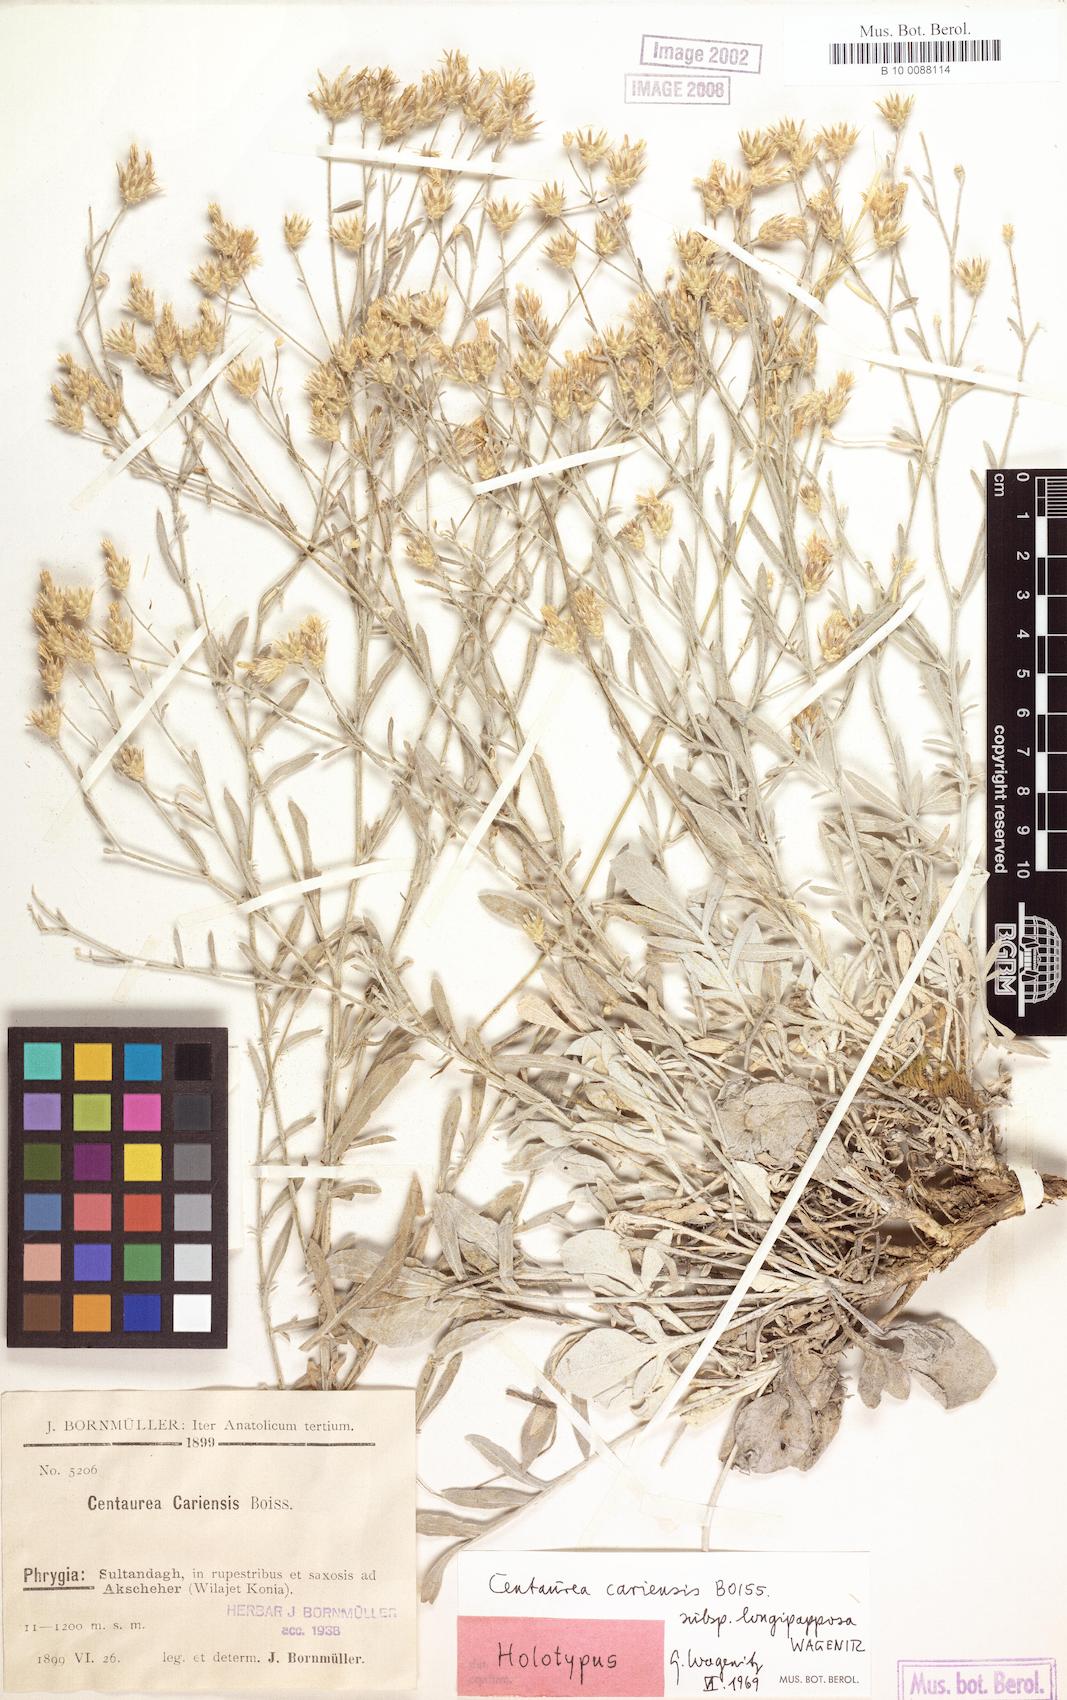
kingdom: Plantae
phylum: Tracheophyta
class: Magnoliopsida
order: Asterales
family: Asteraceae
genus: Centaurea
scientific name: Centaurea cariensis
